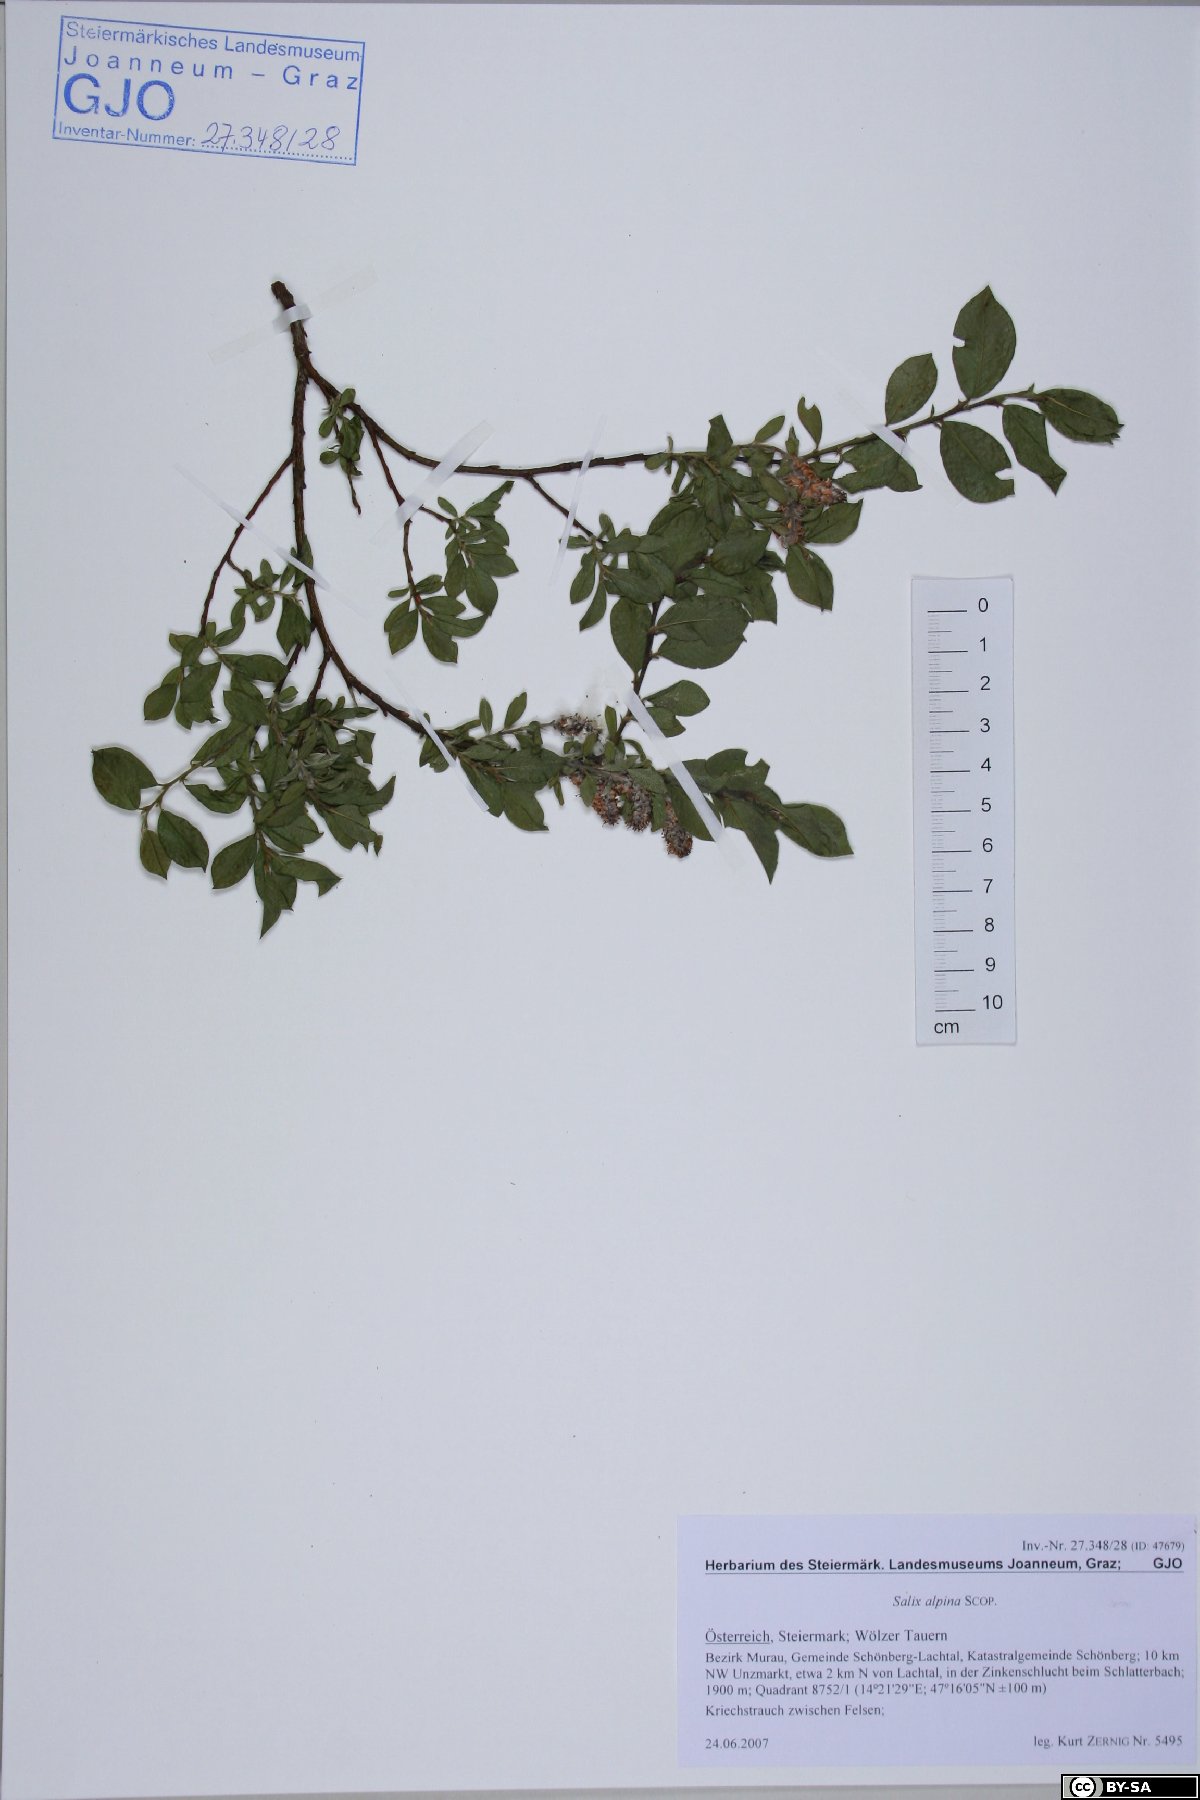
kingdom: Plantae
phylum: Tracheophyta
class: Magnoliopsida
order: Malpighiales
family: Salicaceae
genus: Salix
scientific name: Salix alpina
